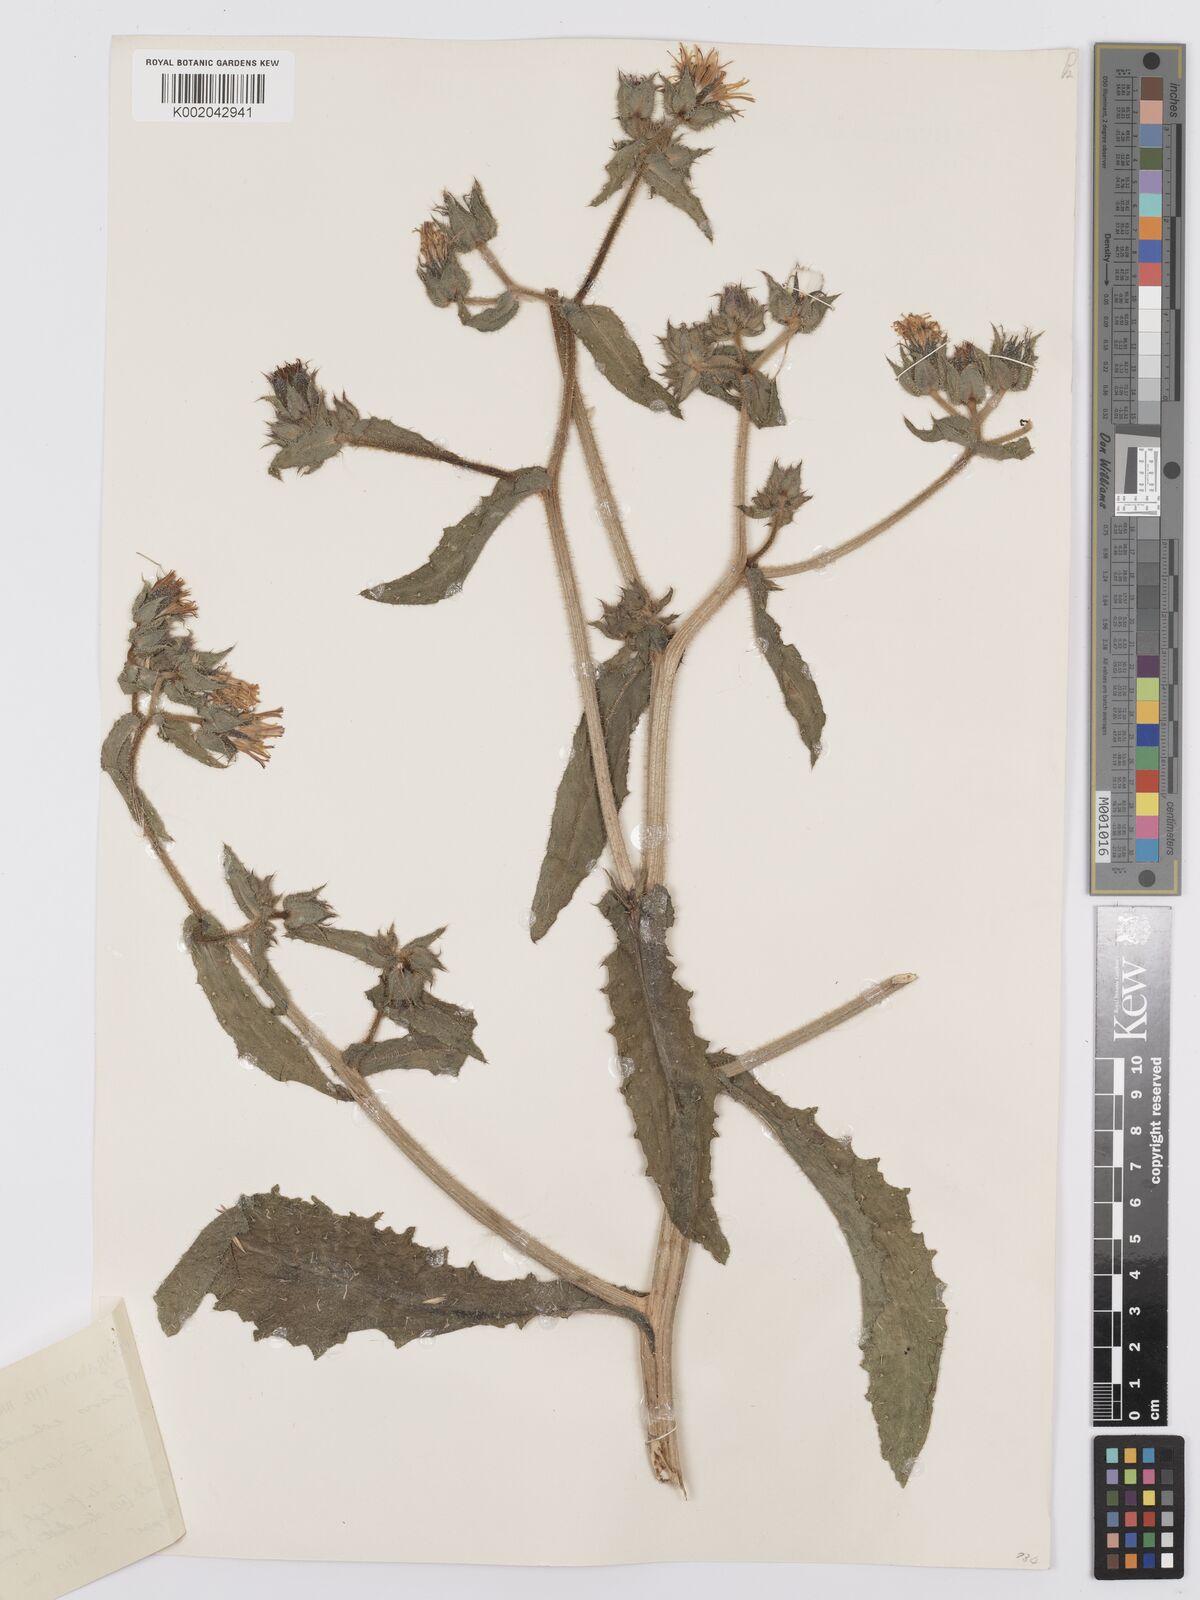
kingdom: Plantae
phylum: Tracheophyta
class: Magnoliopsida
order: Asterales
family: Asteraceae
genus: Helminthotheca
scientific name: Helminthotheca echioides
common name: Ox-tongue
